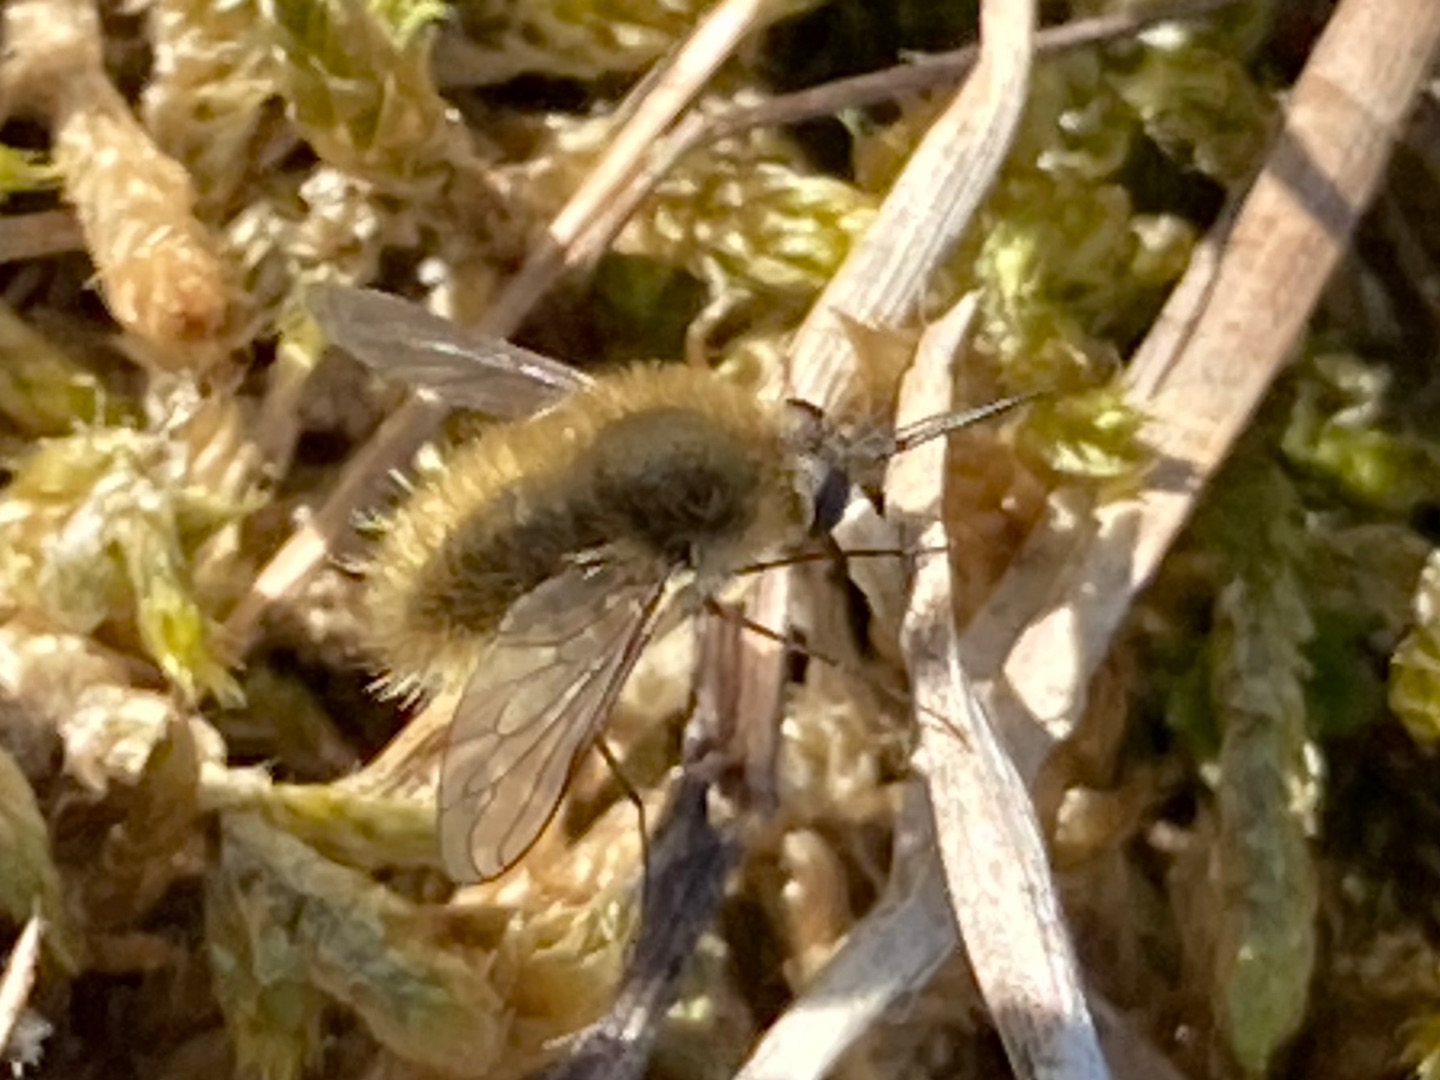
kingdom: Animalia
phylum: Arthropoda
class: Insecta
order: Diptera
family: Bombyliidae
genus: Systoechus
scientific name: Systoechus ctenopterus
